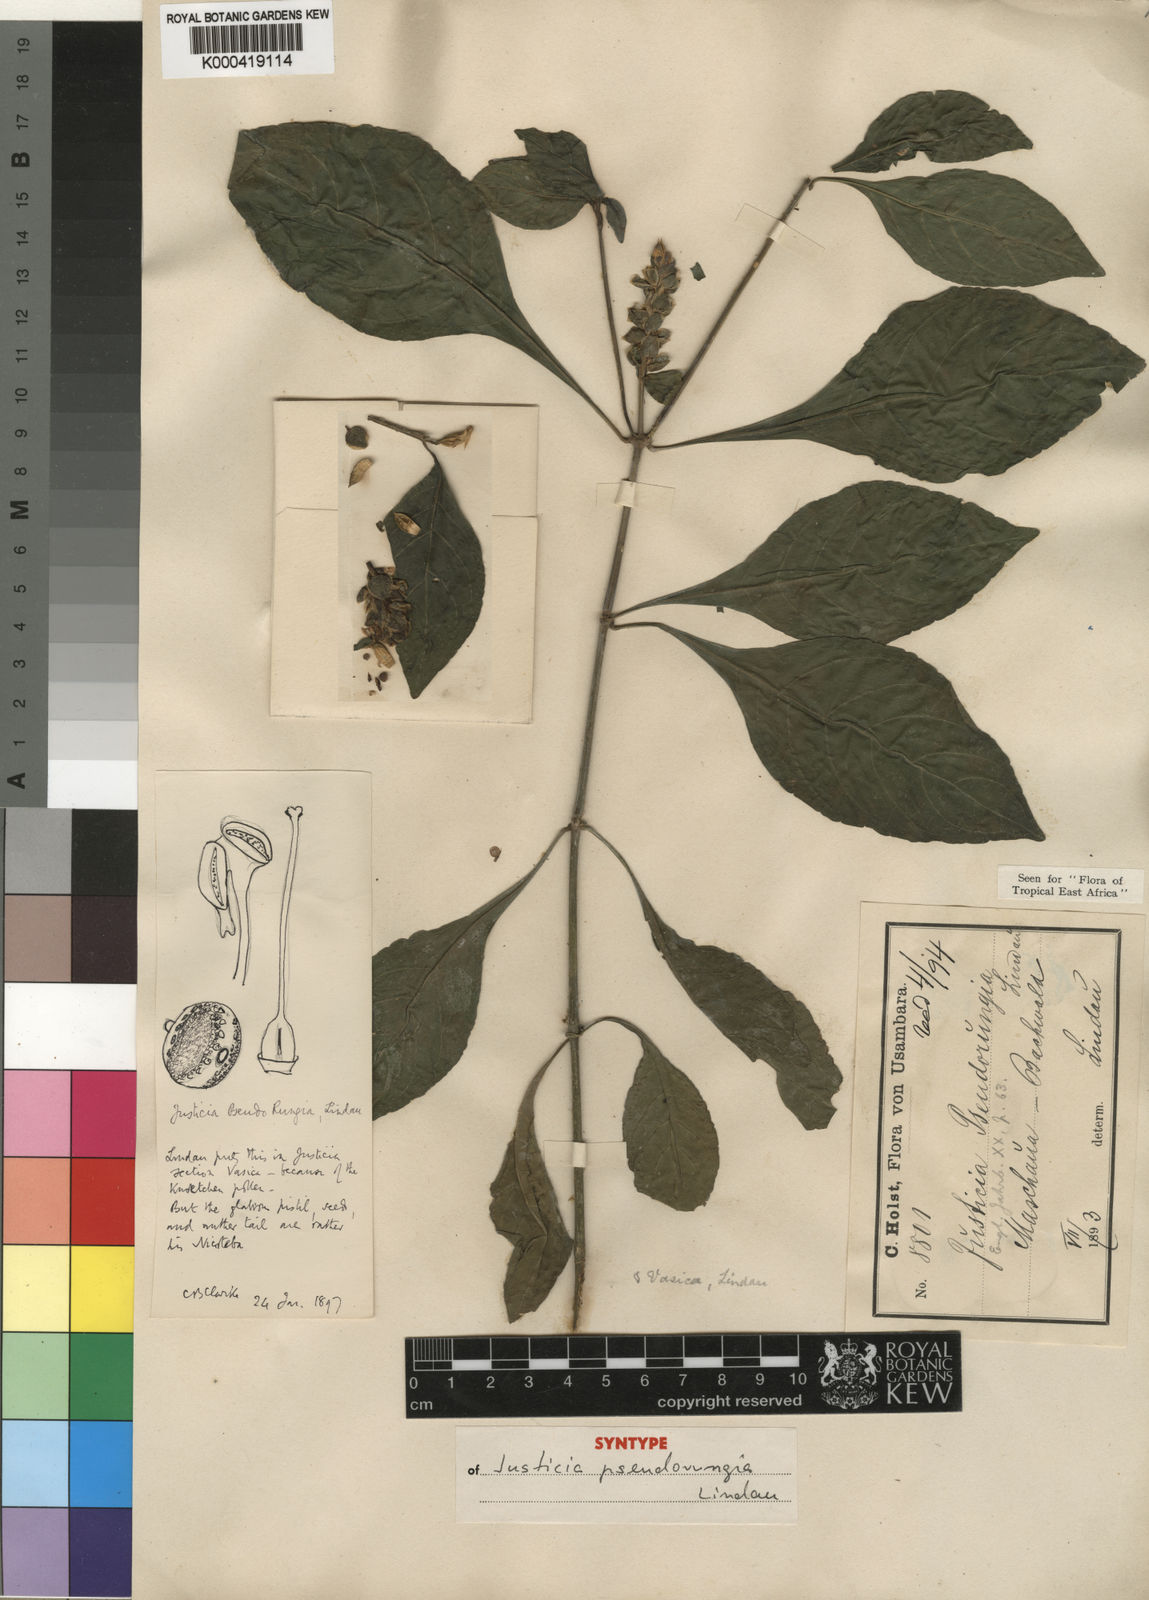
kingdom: Plantae
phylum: Tracheophyta
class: Magnoliopsida
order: Lamiales
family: Acanthaceae
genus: Justicia
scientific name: Justicia pseudorungia
